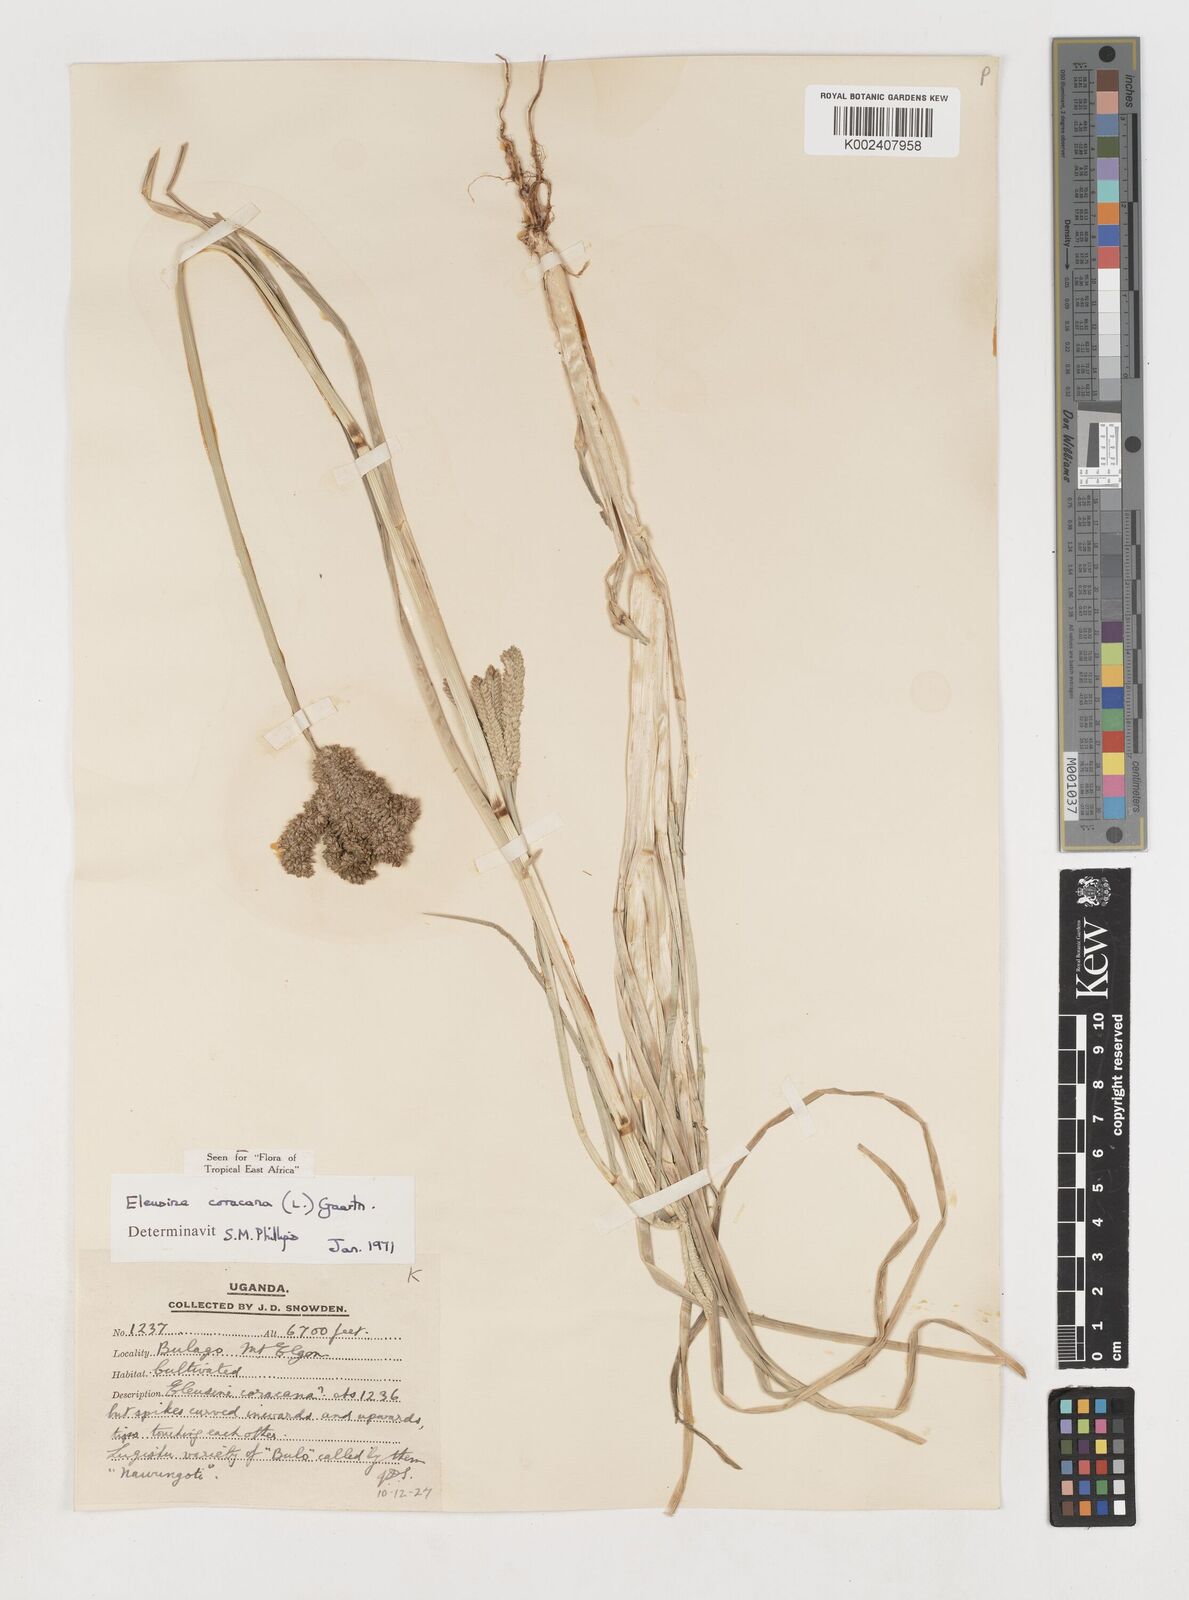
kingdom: Plantae
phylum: Tracheophyta
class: Liliopsida
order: Poales
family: Poaceae
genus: Eleusine
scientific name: Eleusine coracana
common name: Finger millet
